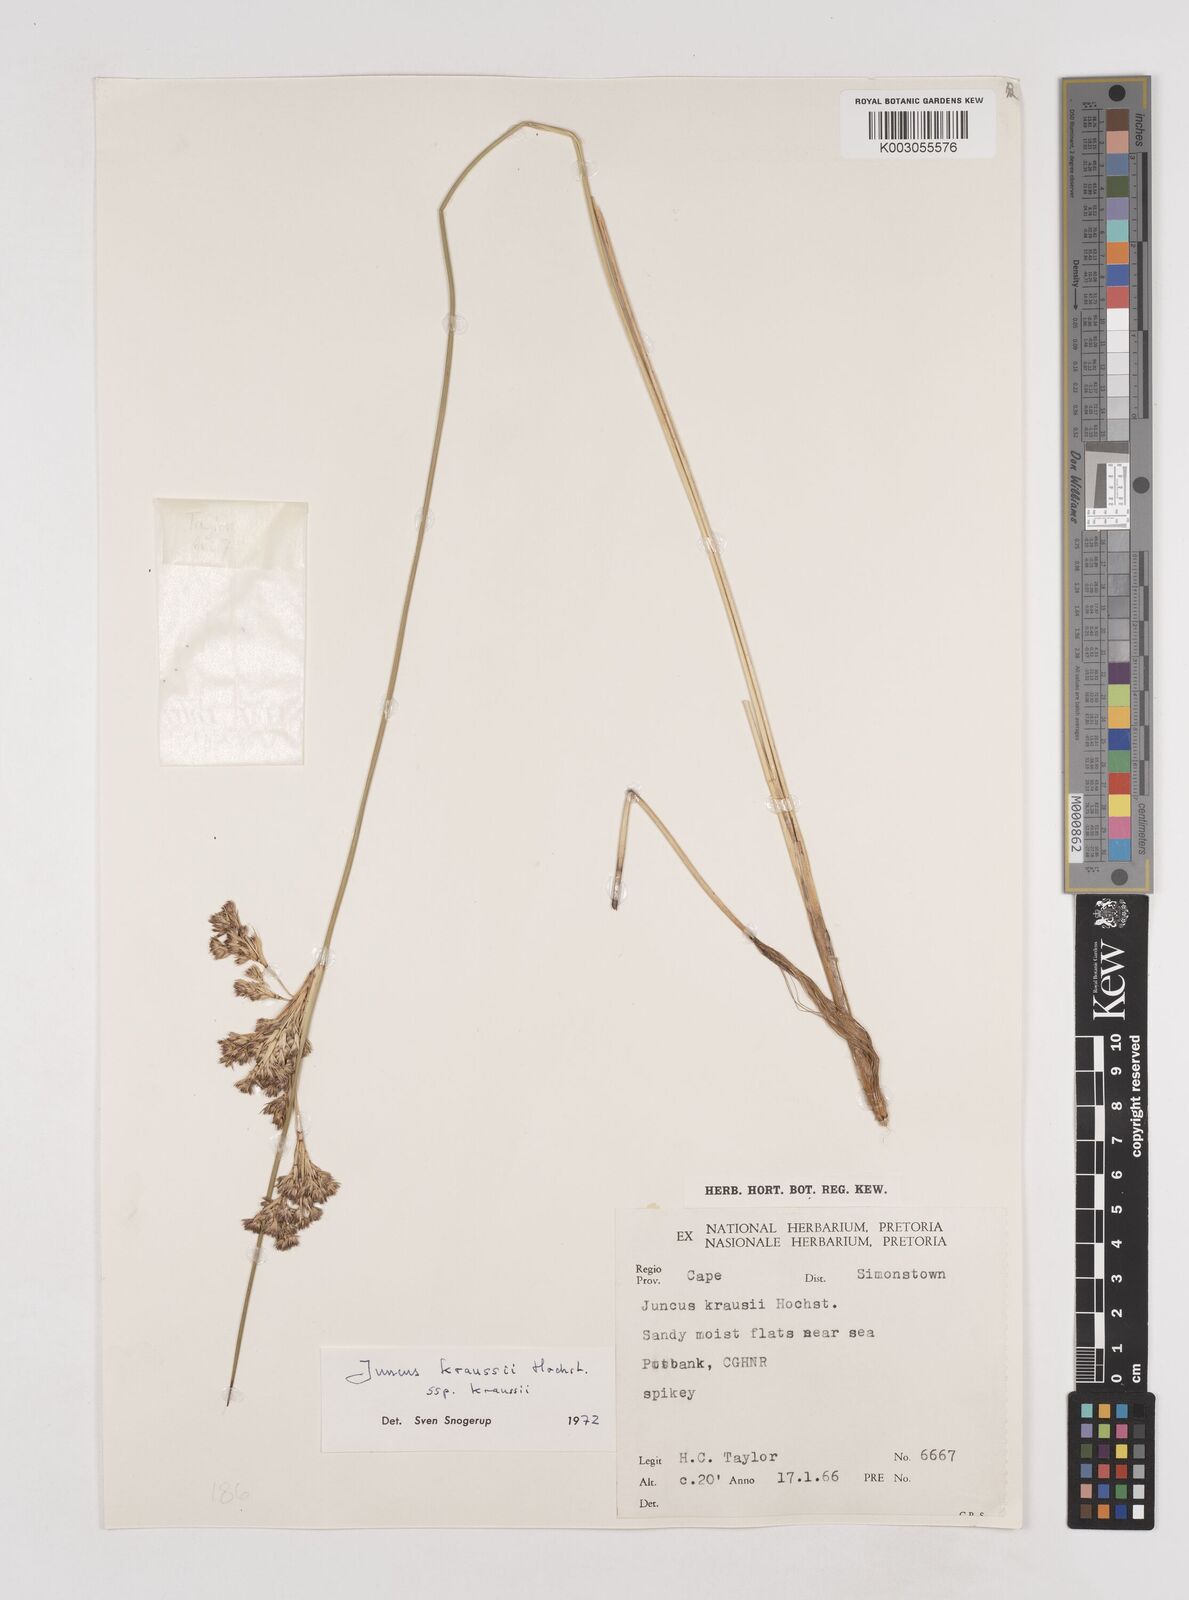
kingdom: Plantae
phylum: Tracheophyta
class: Liliopsida
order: Poales
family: Juncaceae
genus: Juncus
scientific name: Juncus kraussii
